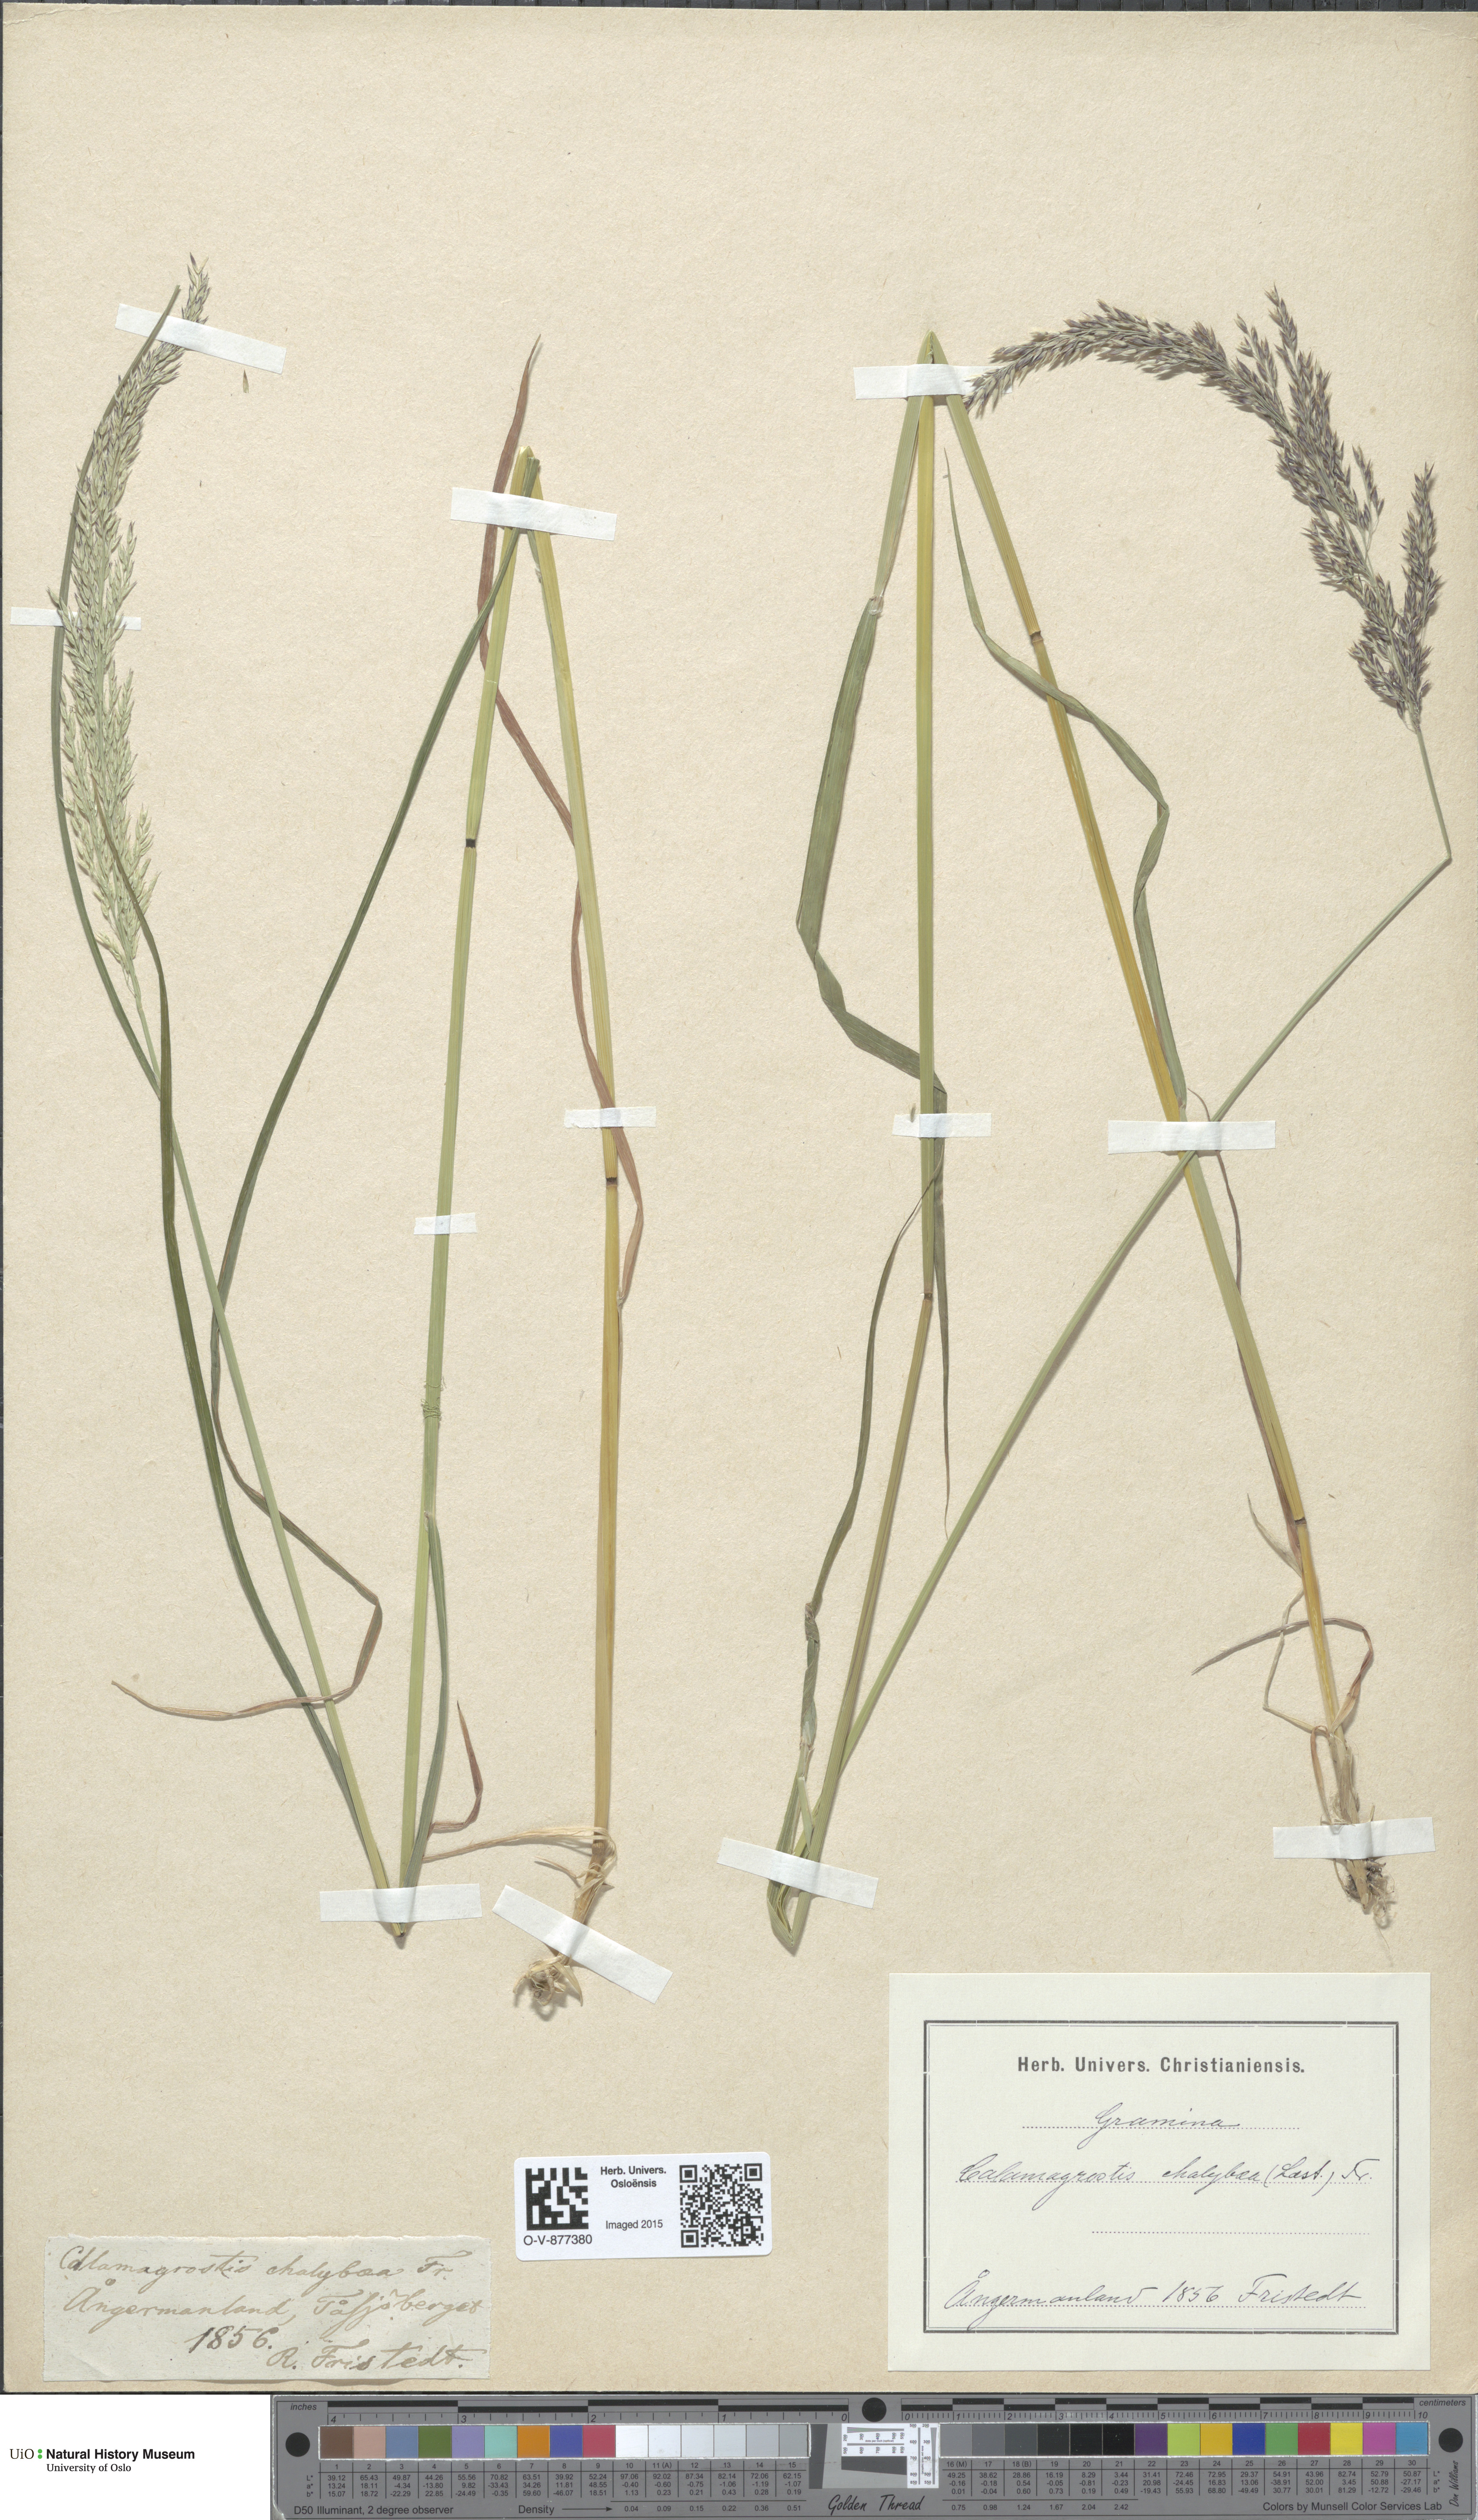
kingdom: Plantae
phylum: Tracheophyta
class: Liliopsida
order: Poales
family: Poaceae
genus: Calamagrostis
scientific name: Calamagrostis chalybaea
